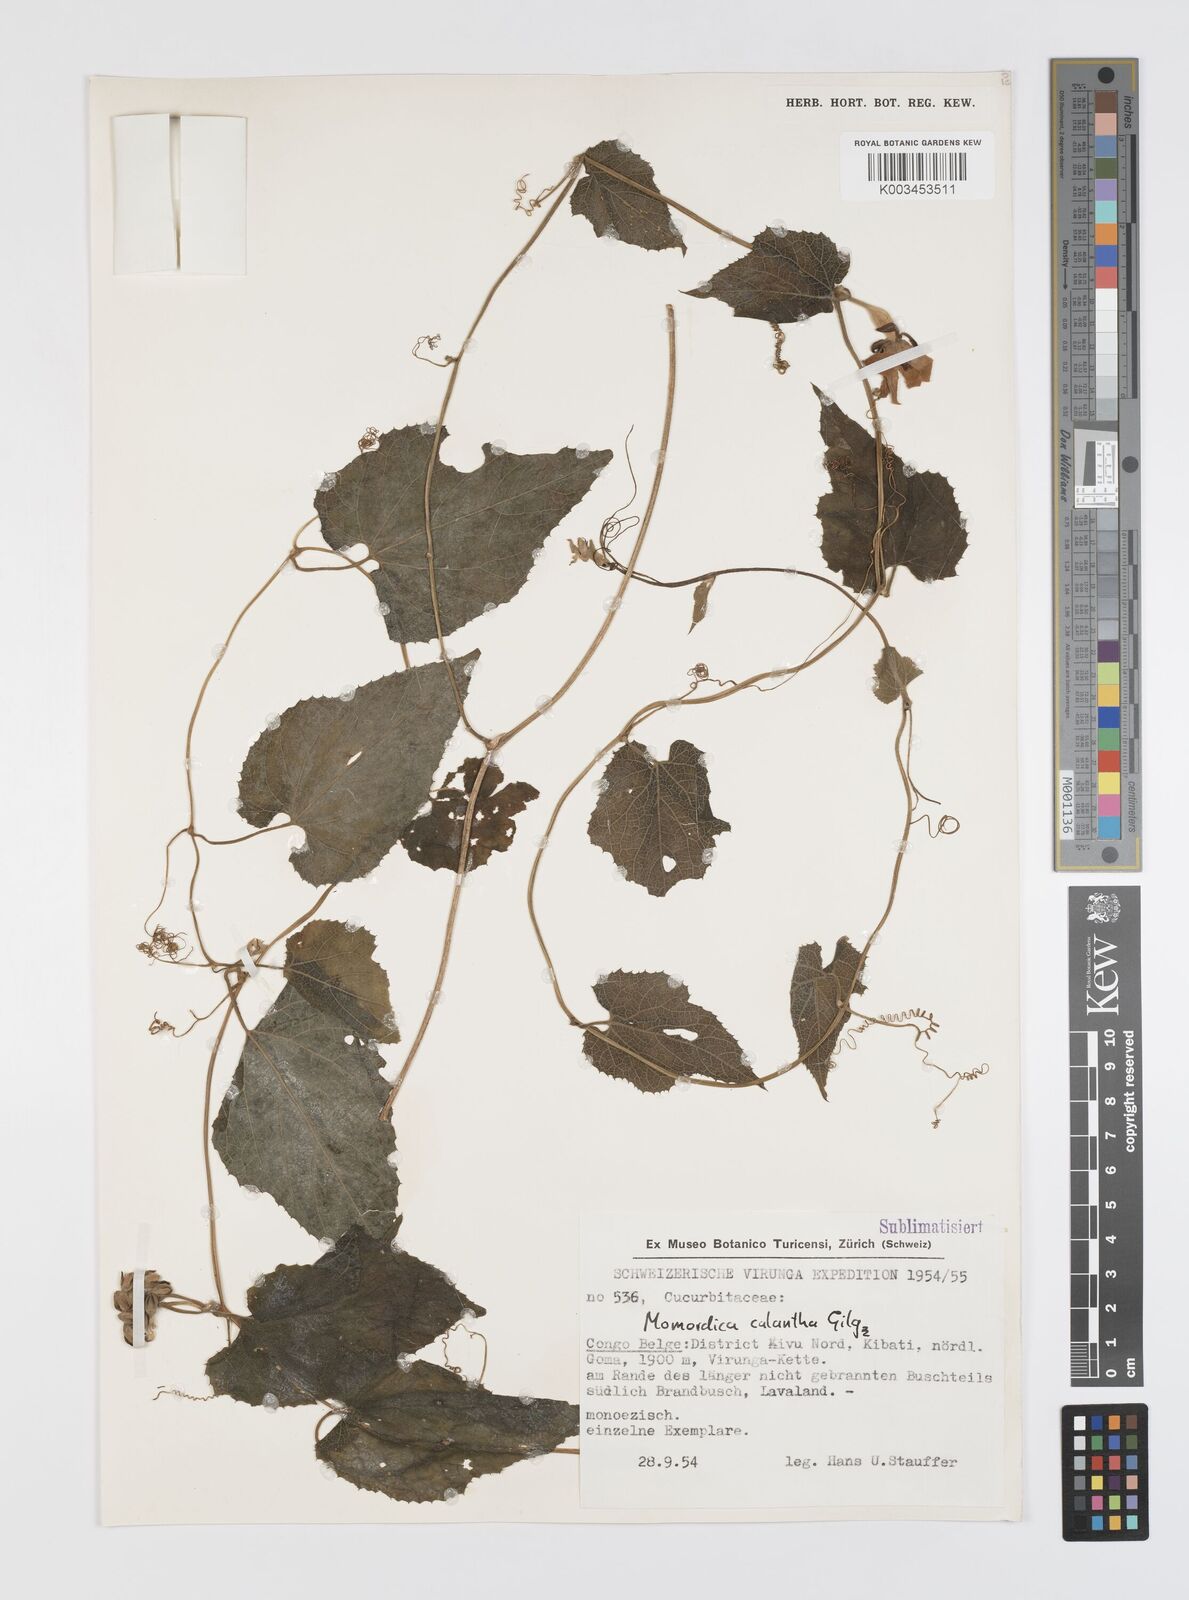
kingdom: Plantae
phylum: Tracheophyta
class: Magnoliopsida
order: Cucurbitales
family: Cucurbitaceae
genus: Momordica
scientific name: Momordica calantha
